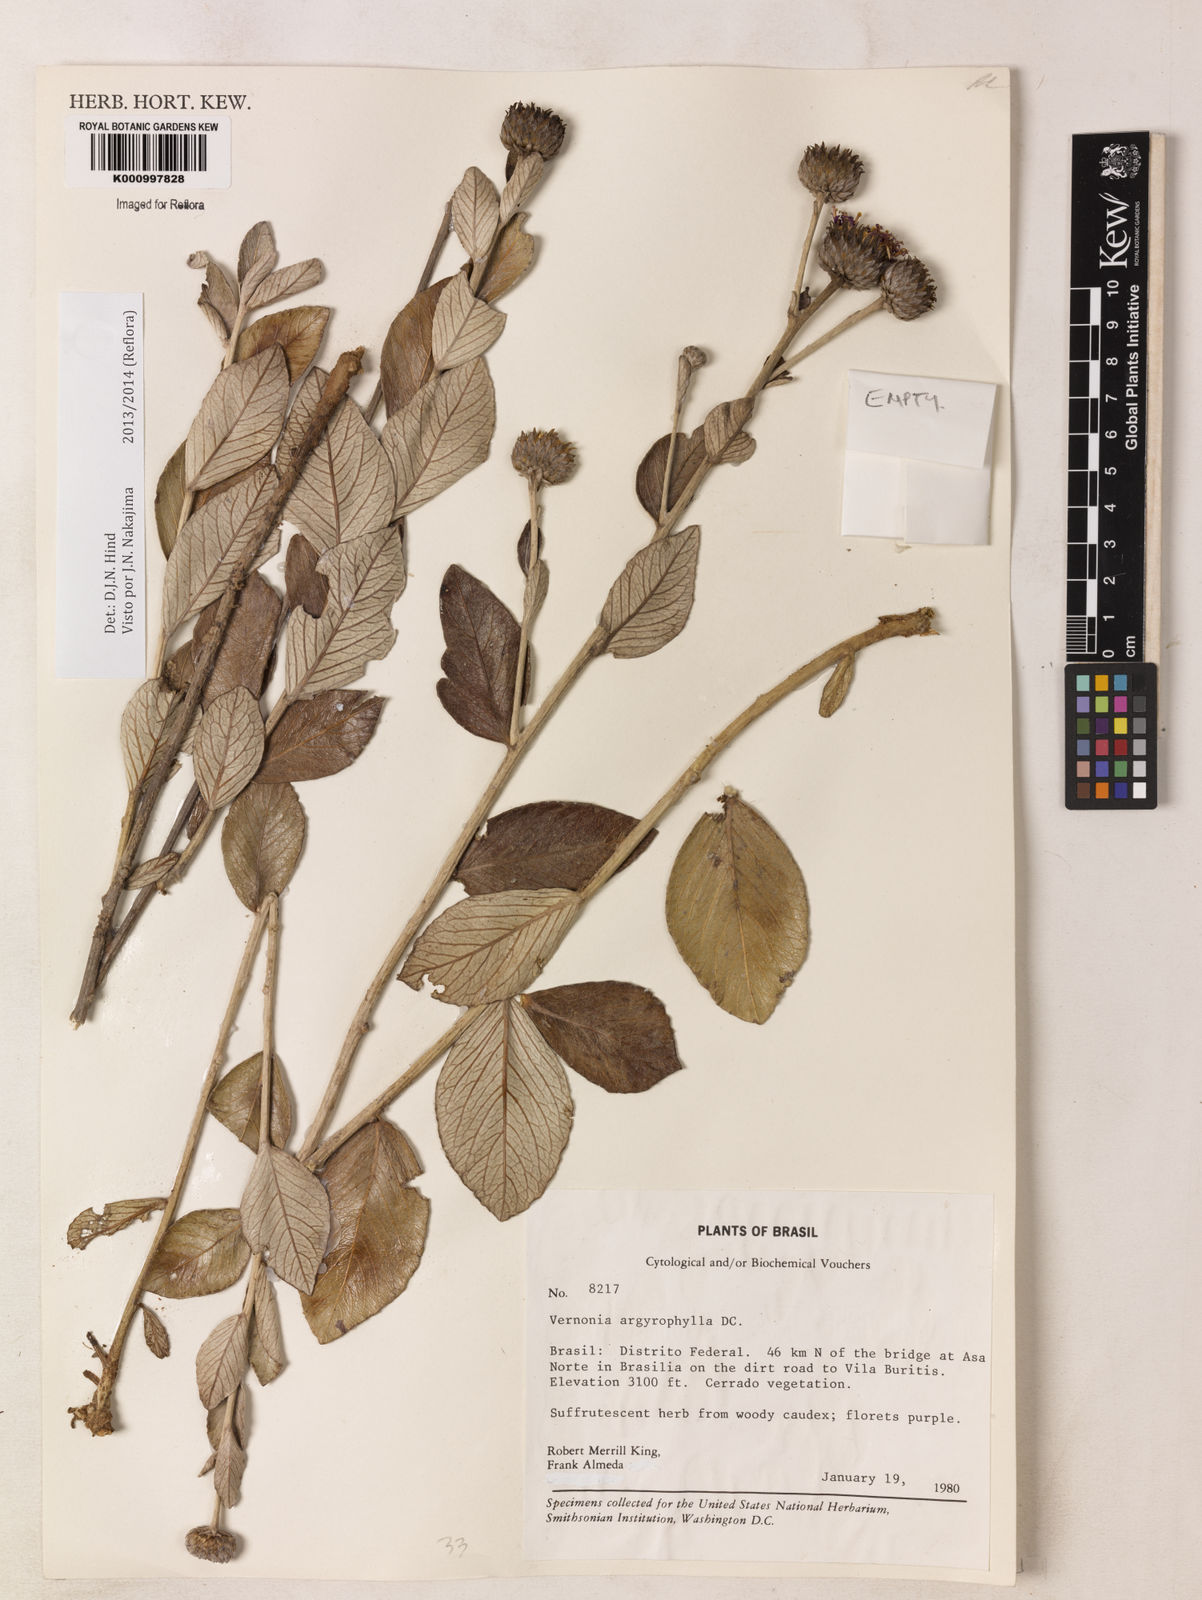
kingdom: Plantae
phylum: Tracheophyta
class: Magnoliopsida
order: Asterales
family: Asteraceae
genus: Lessingianthus
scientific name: Lessingianthus argyrophyllus
